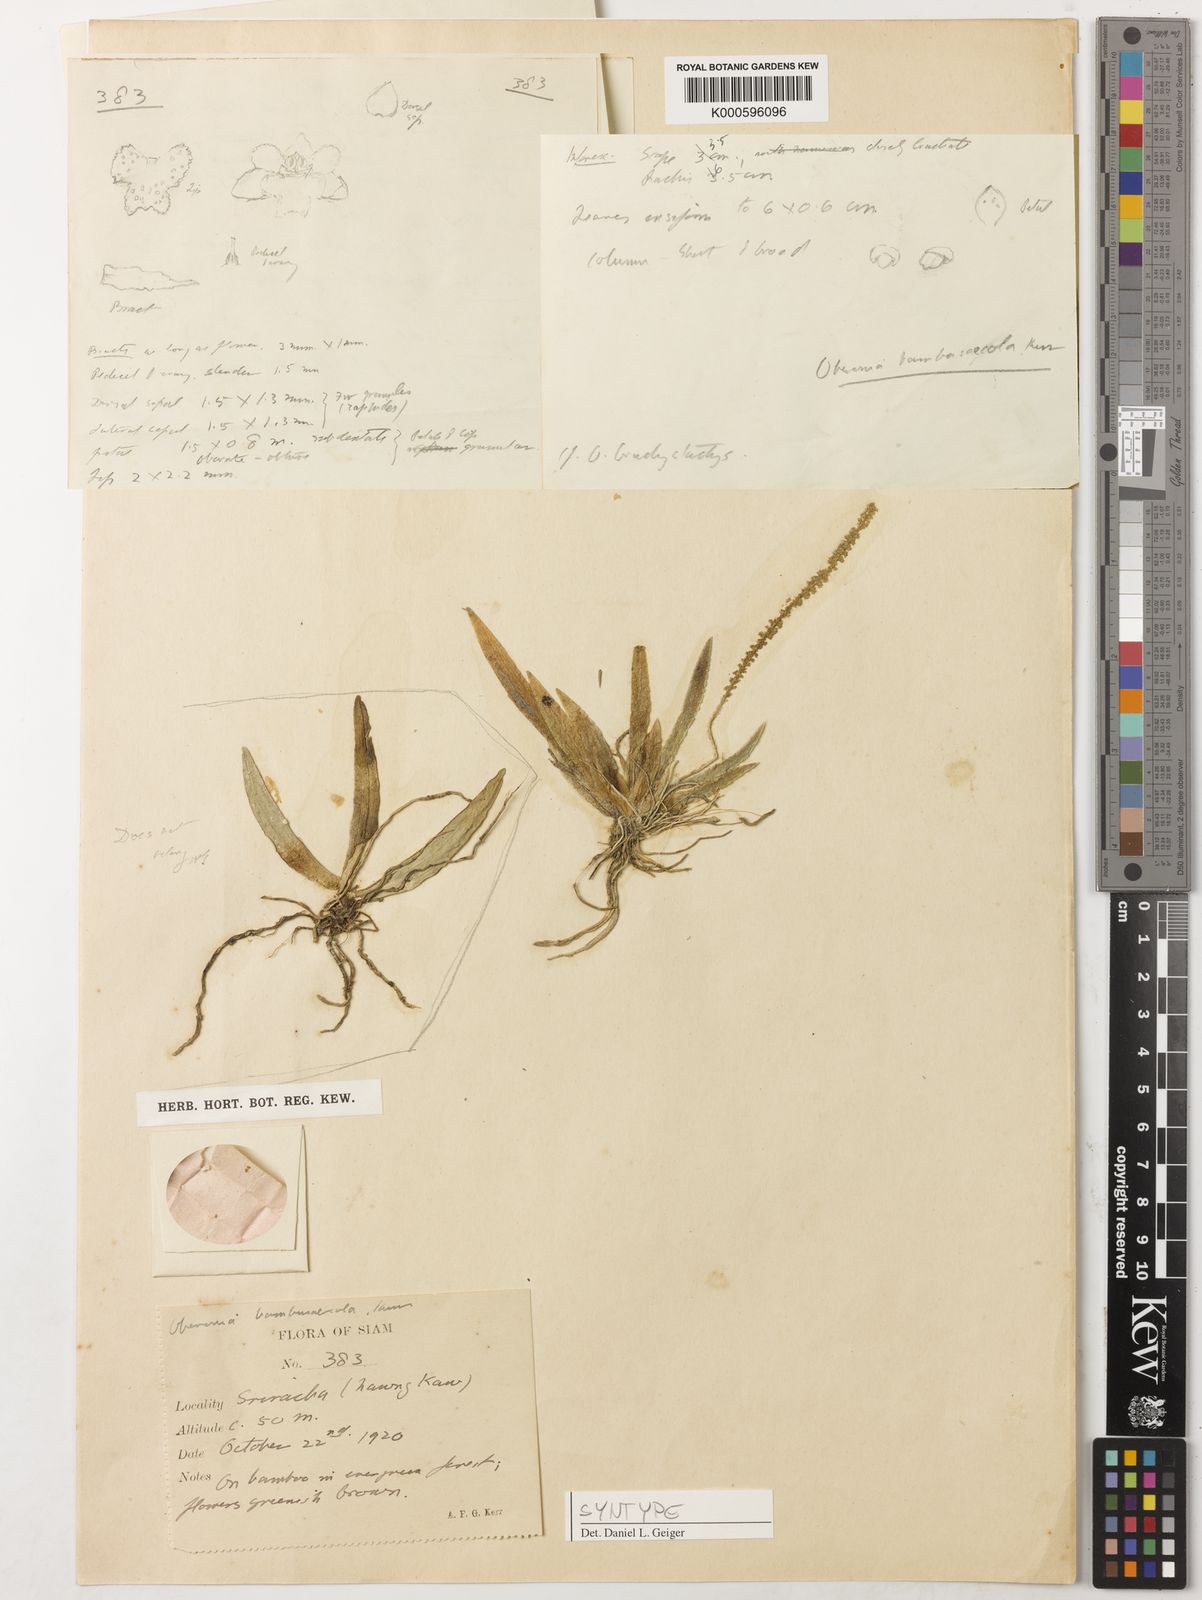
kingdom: Plantae
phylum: Tracheophyta
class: Liliopsida
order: Asparagales
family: Orchidaceae
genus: Oberonia
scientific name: Oberonia brachystachys
